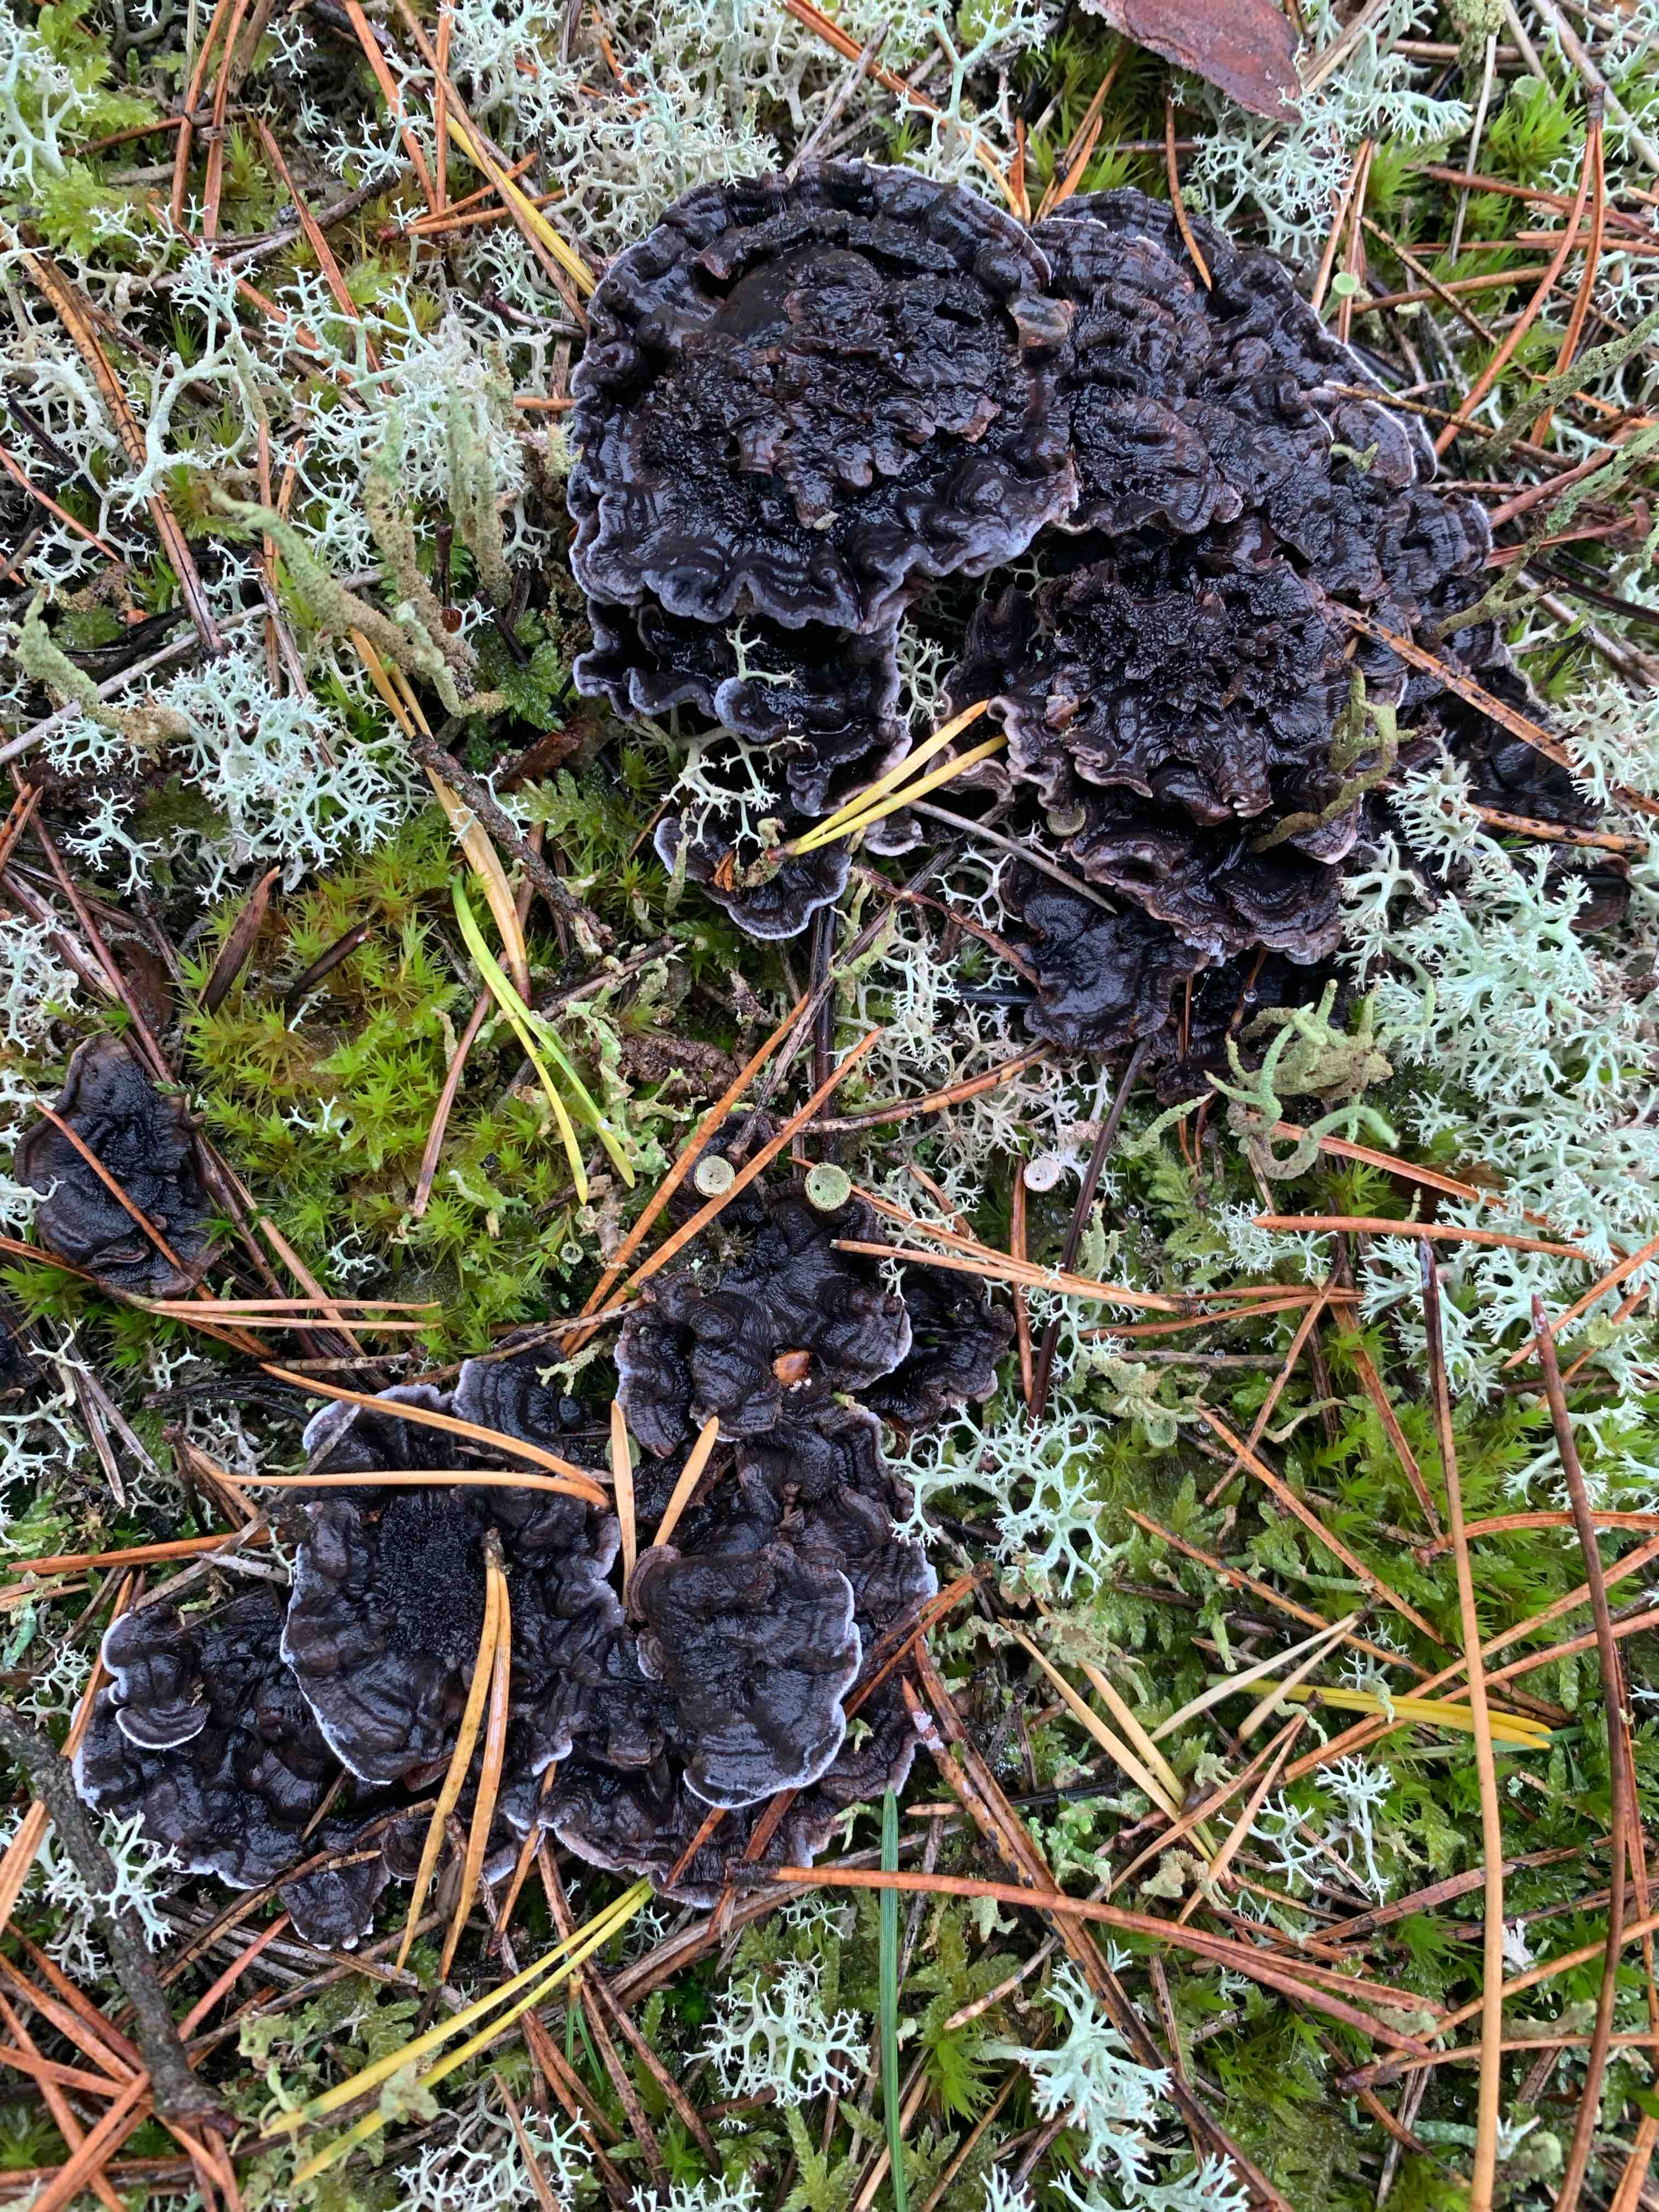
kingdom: Fungi
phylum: Basidiomycota
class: Agaricomycetes
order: Thelephorales
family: Thelephoraceae
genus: Phellodon
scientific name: Phellodon tomentosus
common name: vellugtende duftpigsvamp
